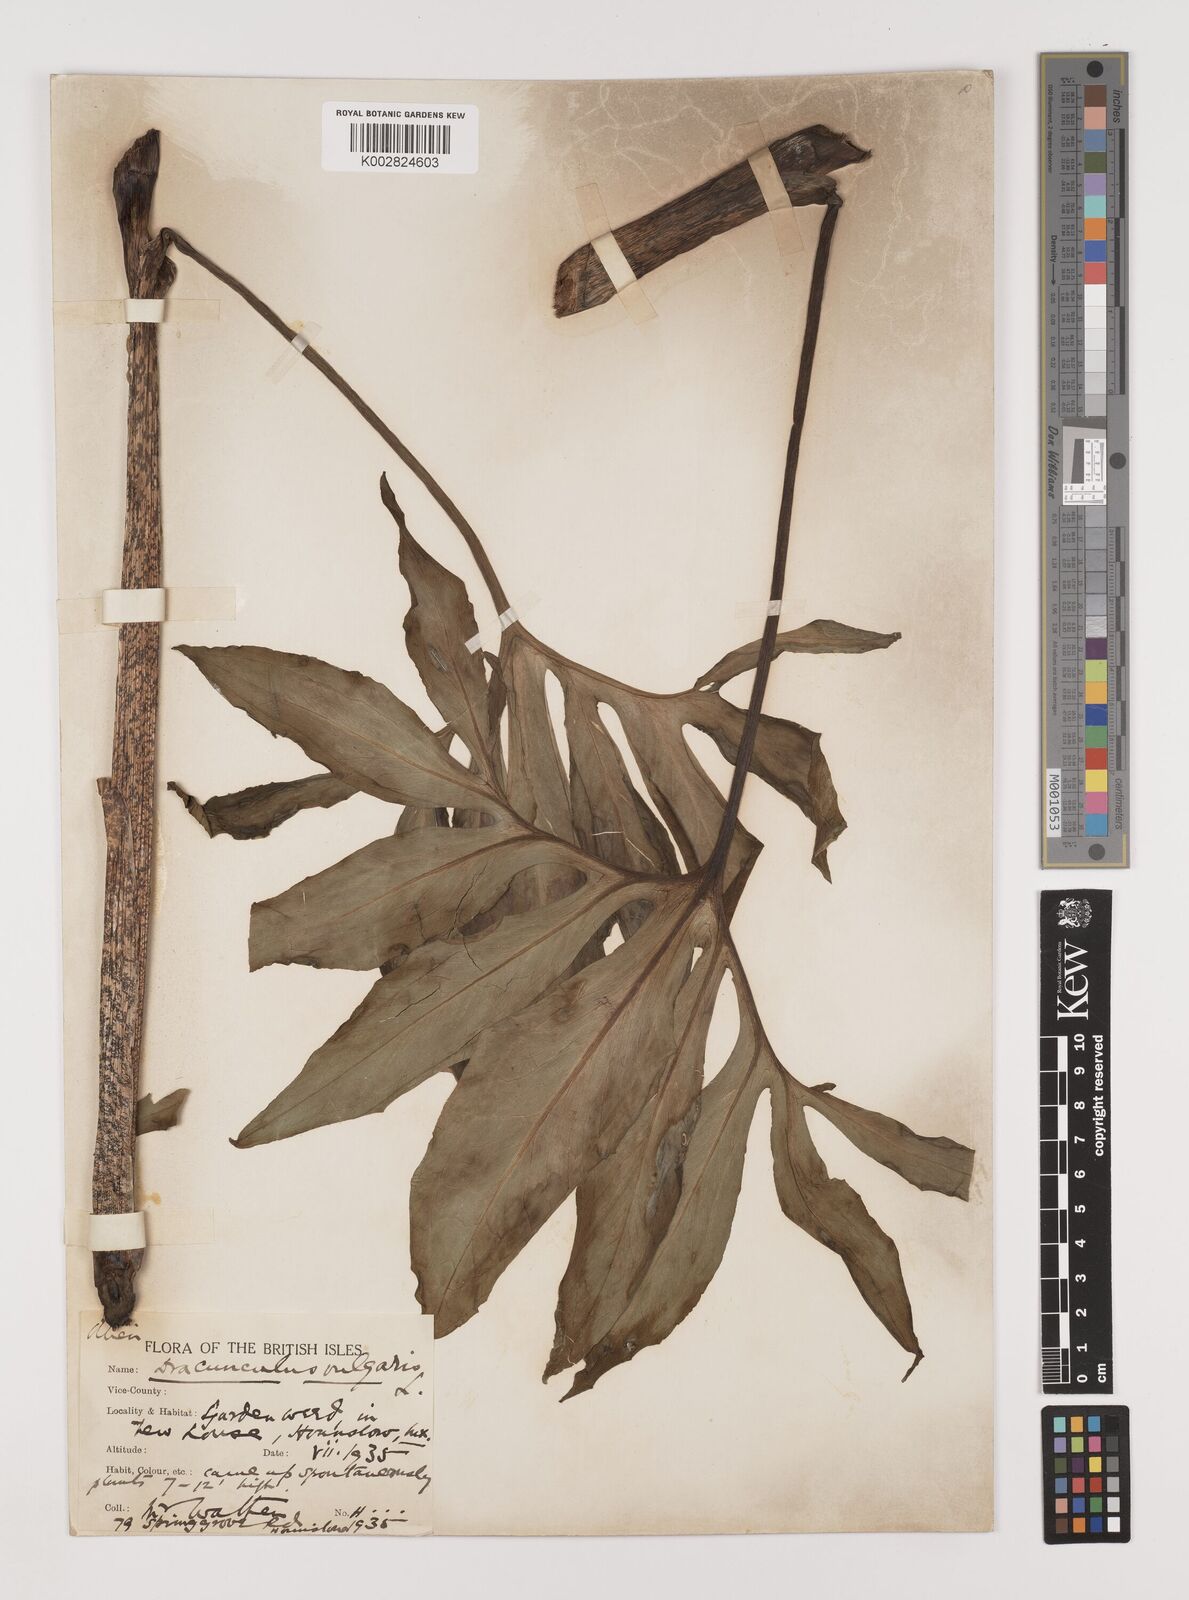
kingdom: Plantae
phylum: Tracheophyta
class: Liliopsida
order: Alismatales
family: Araceae
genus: Dracunculus
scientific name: Dracunculus vulgaris
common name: Dragon arum
